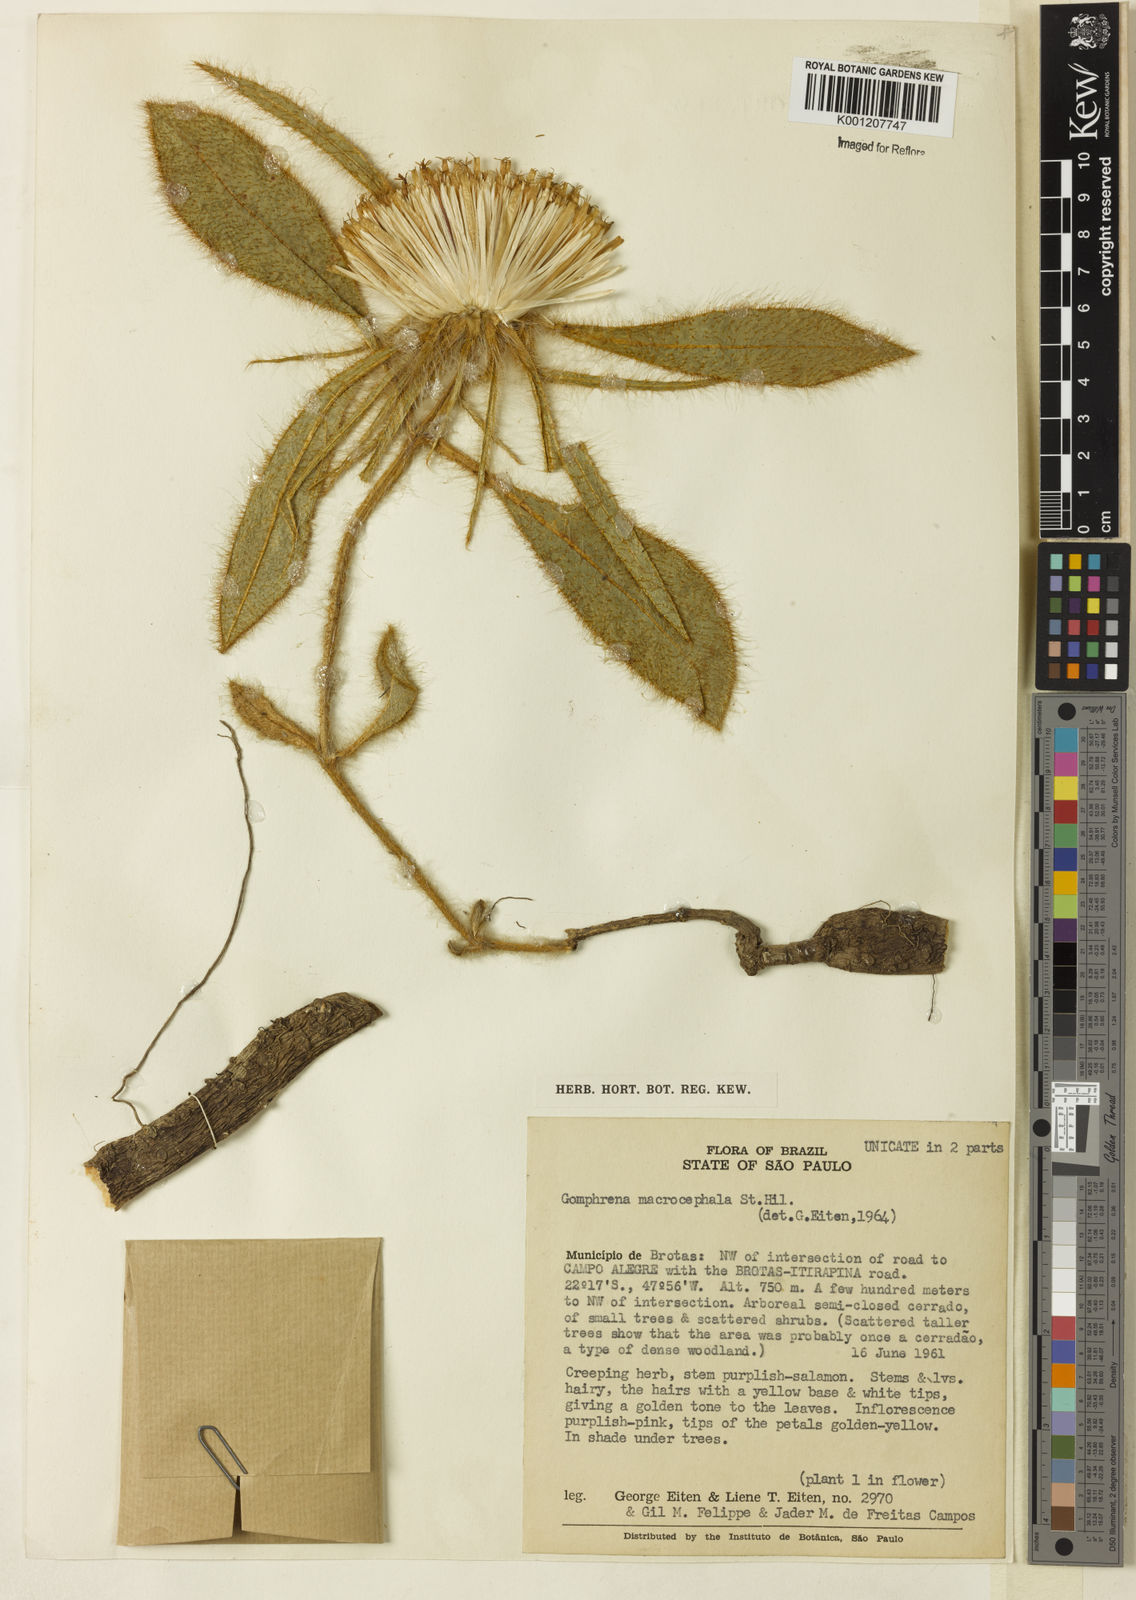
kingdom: Plantae
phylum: Tracheophyta
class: Magnoliopsida
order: Caryophyllales
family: Amaranthaceae
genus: Gomphrena
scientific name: Gomphrena macrocephala
